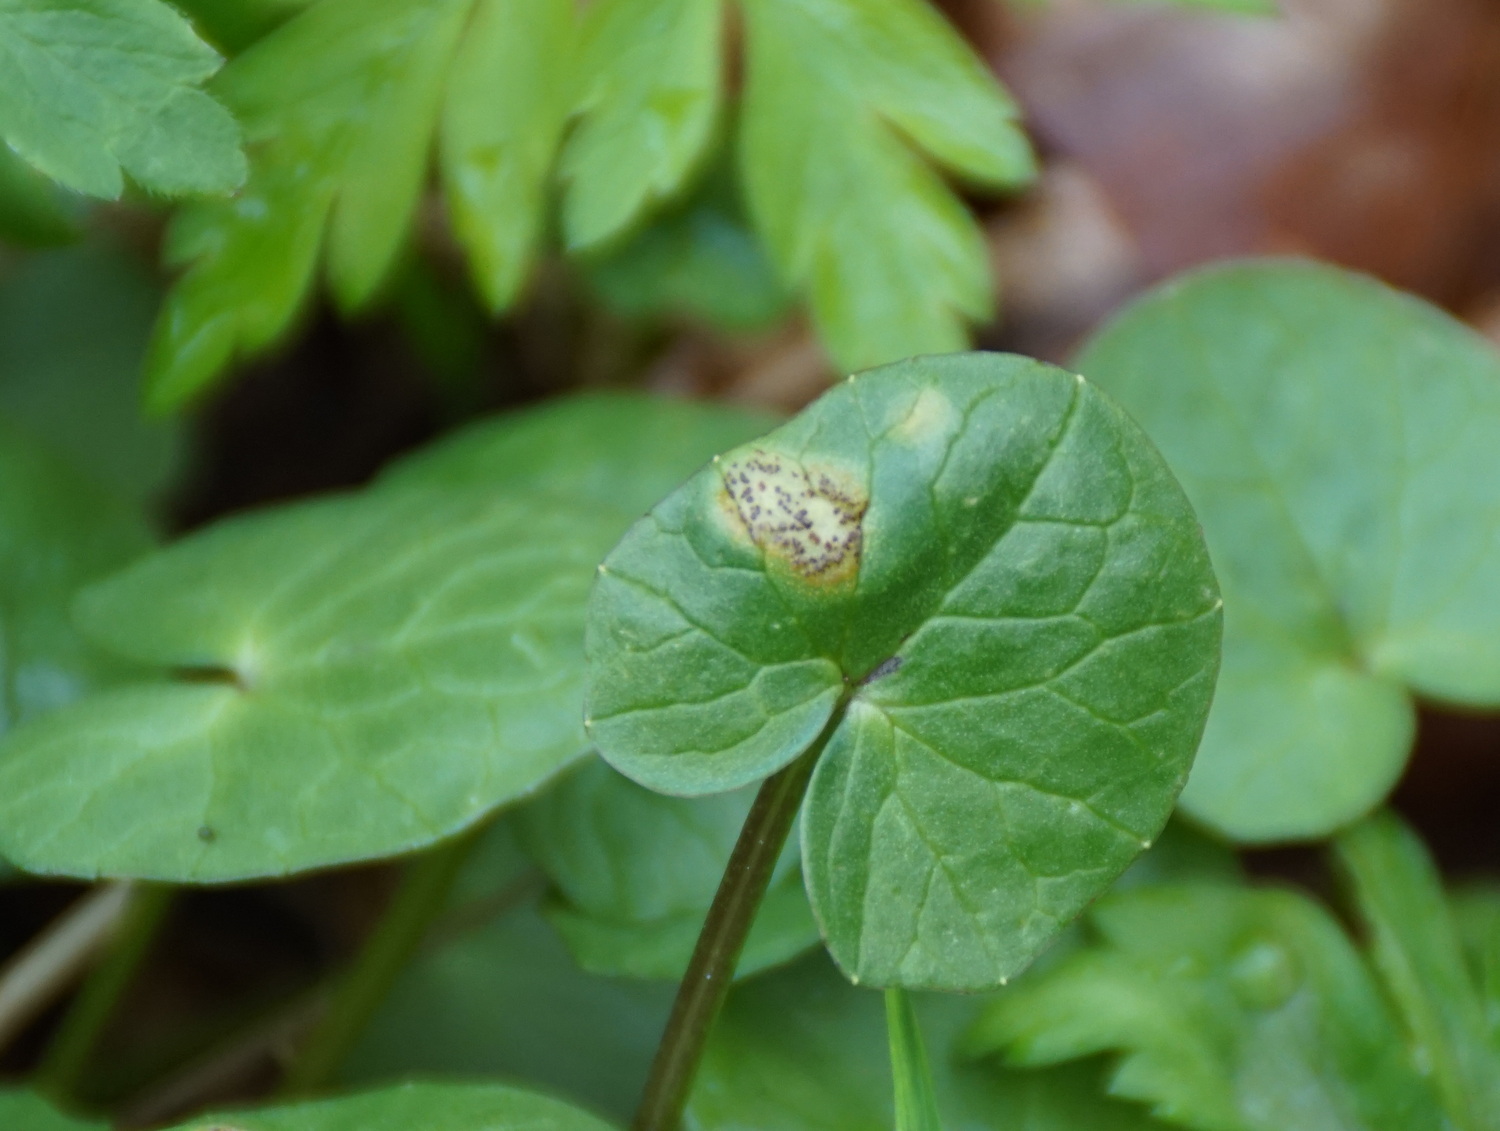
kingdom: Fungi
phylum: Basidiomycota
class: Pucciniomycetes
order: Pucciniales
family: Pucciniaceae
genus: Uromyces
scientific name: Uromyces ficariae
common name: vorterod-encellerust
